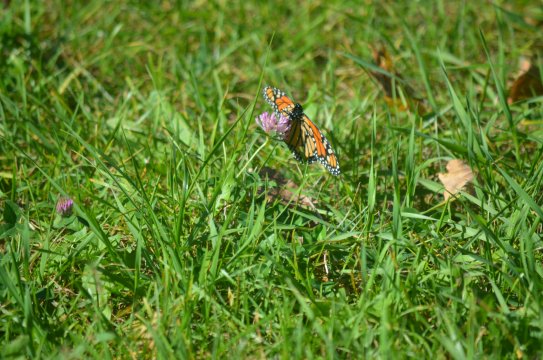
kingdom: Animalia
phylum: Arthropoda
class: Insecta
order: Lepidoptera
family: Nymphalidae
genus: Danaus
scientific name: Danaus plexippus
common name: Monarch
